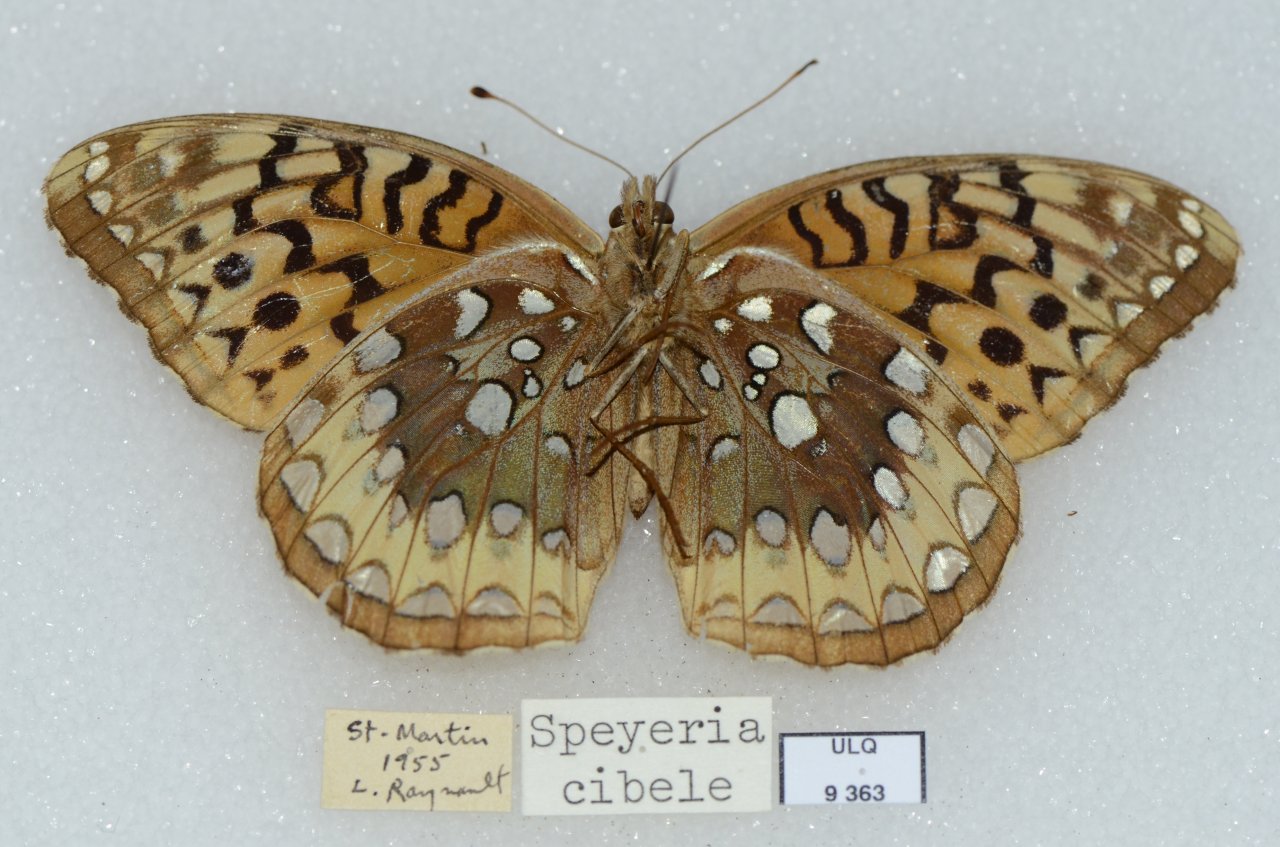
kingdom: Animalia
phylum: Arthropoda
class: Insecta
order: Lepidoptera
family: Nymphalidae
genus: Speyeria
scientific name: Speyeria cybele
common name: Great Spangled Fritillary
